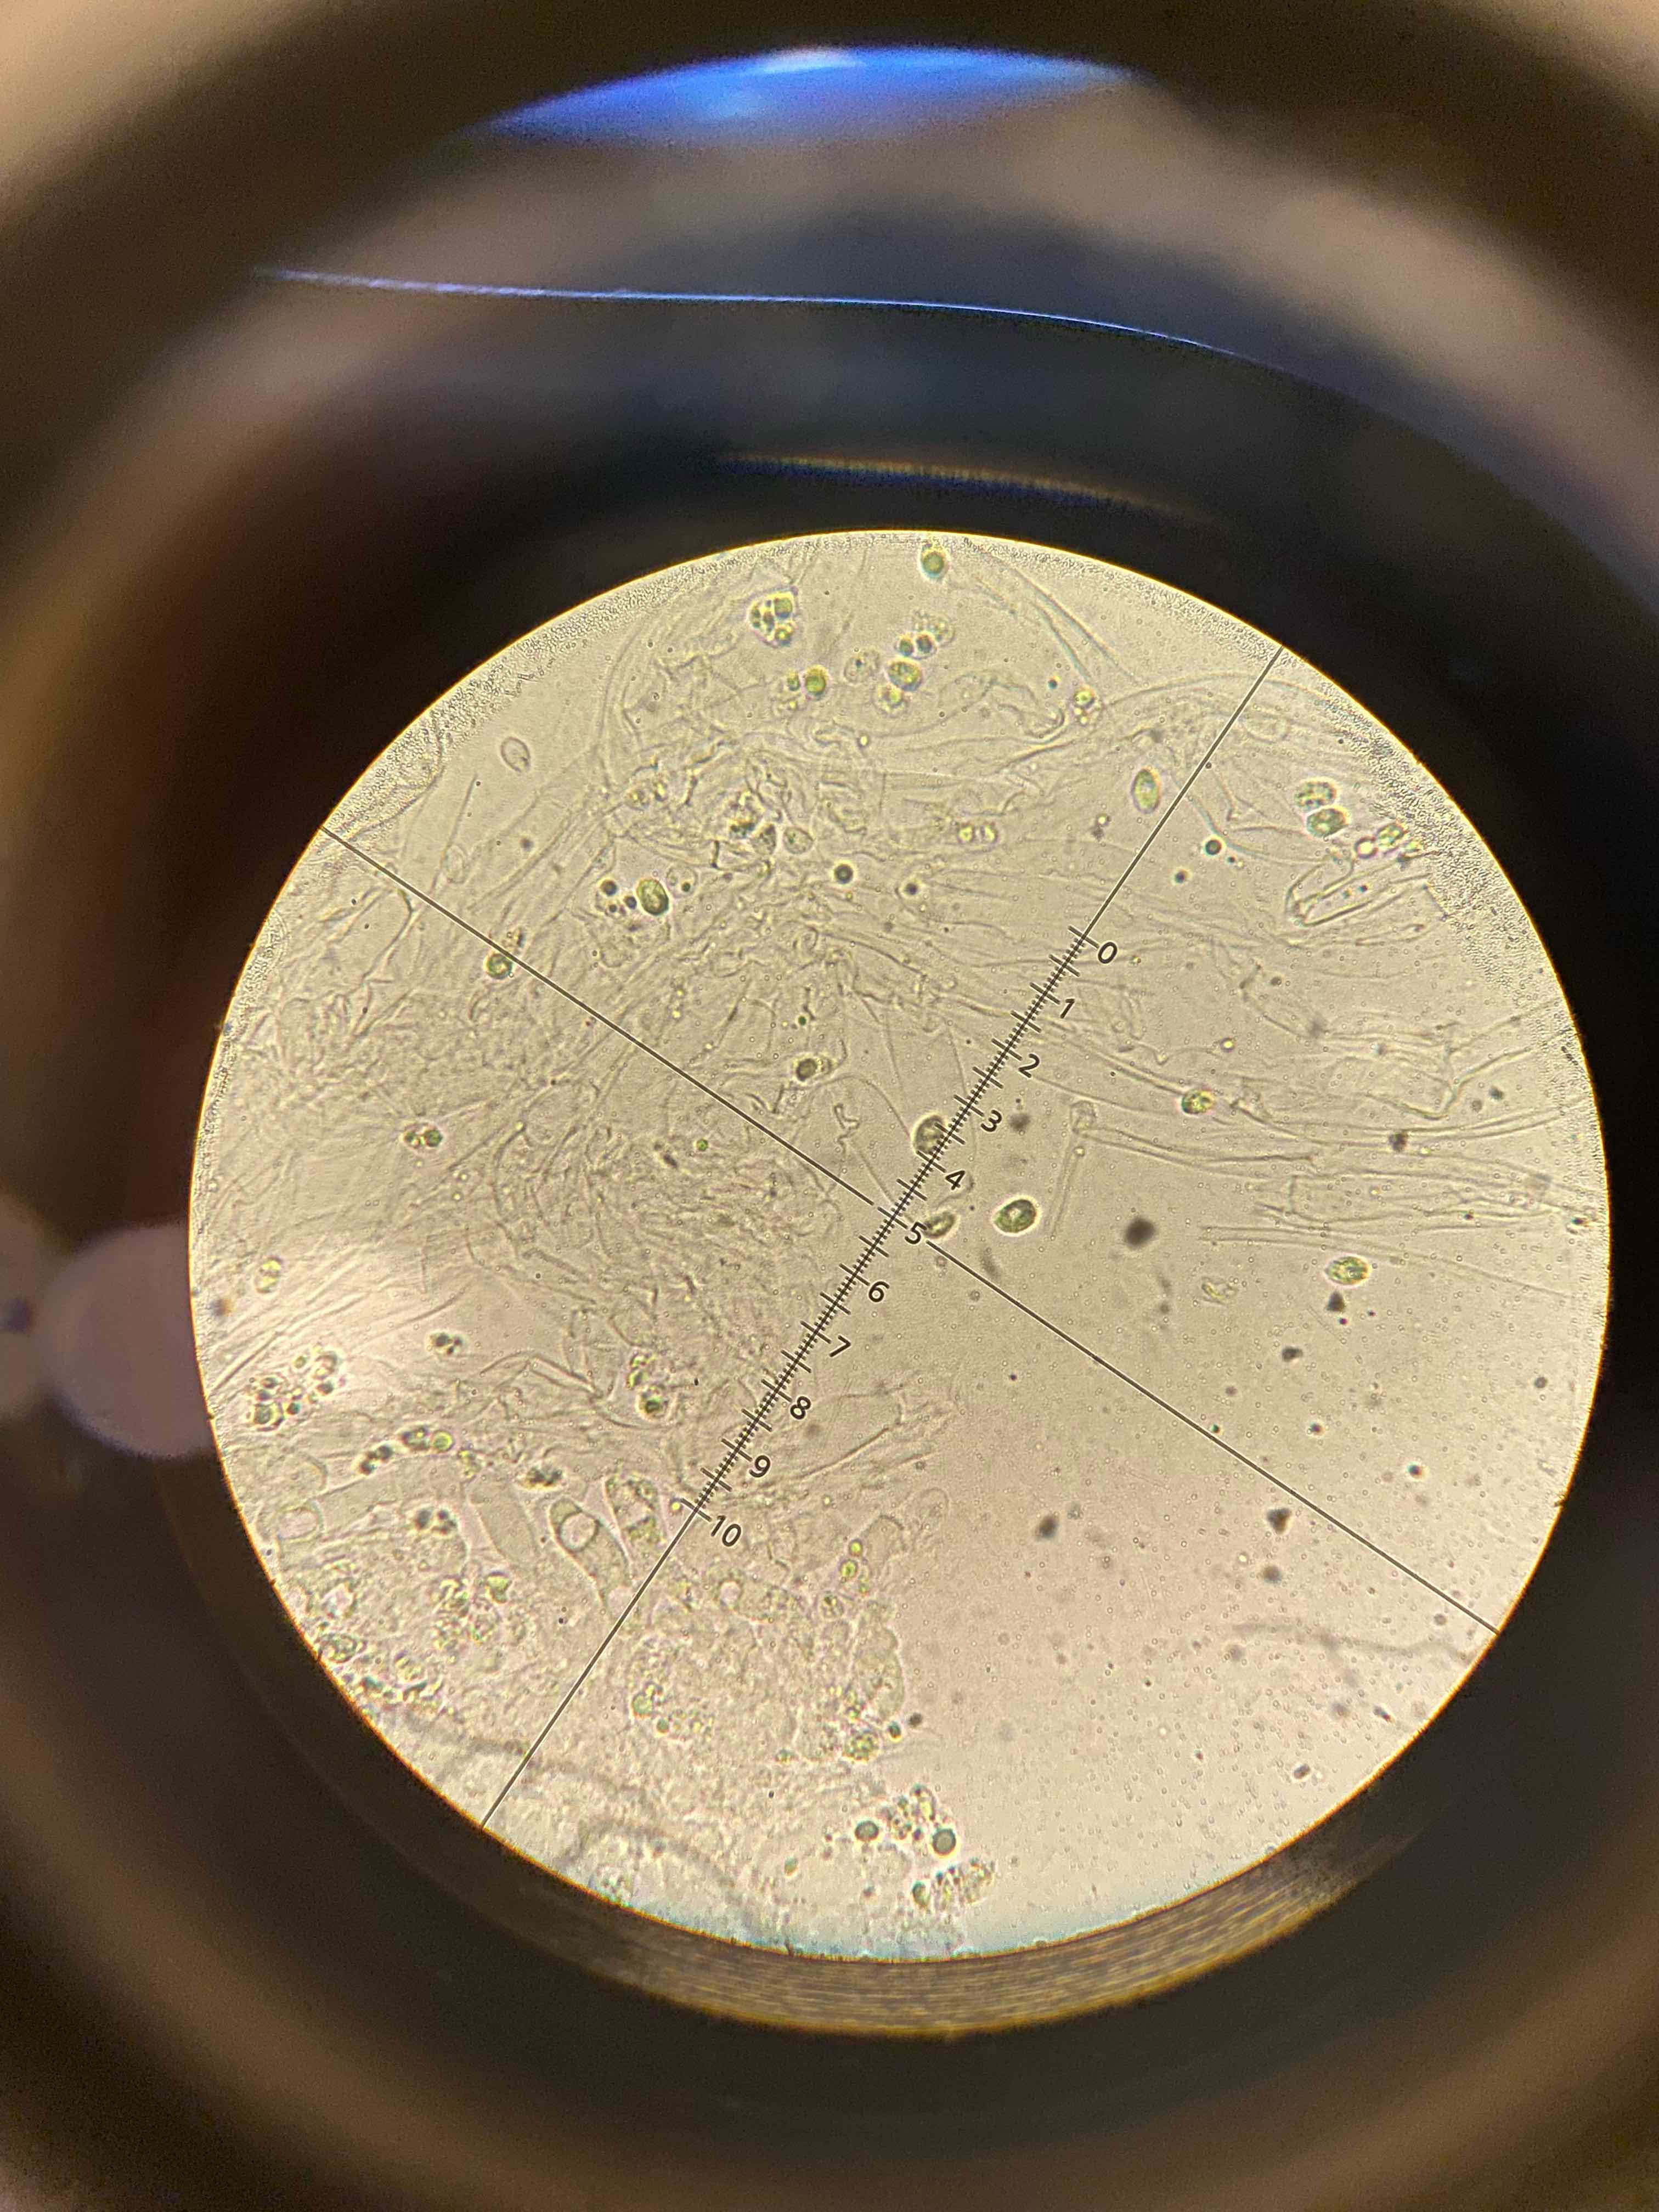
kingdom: Fungi
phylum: Basidiomycota
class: Agaricomycetes
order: Agaricales
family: Tricholomataceae
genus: Lepista
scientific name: Lepista sordida
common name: spinkel hekseringshat
